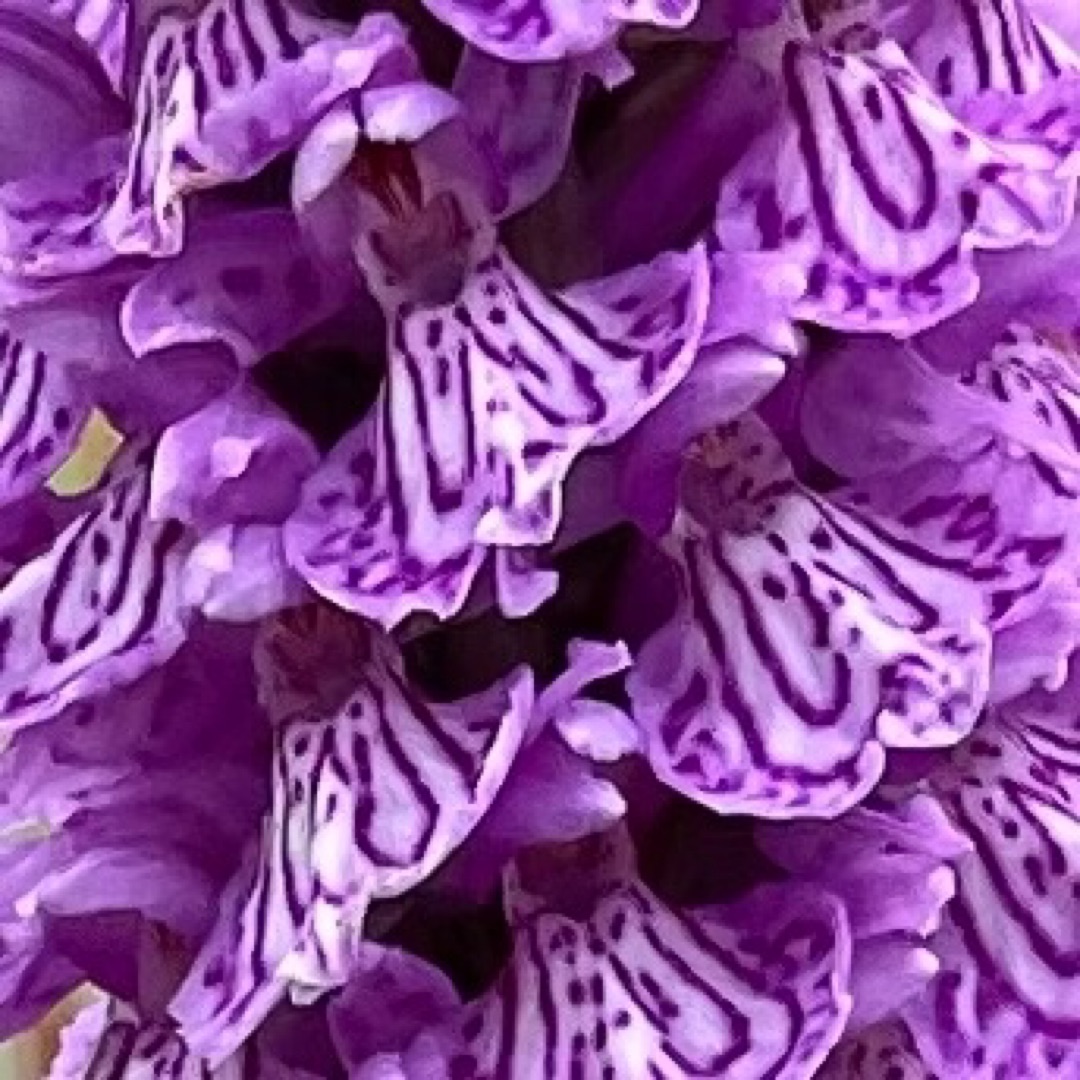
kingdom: Plantae
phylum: Tracheophyta
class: Liliopsida
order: Asparagales
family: Orchidaceae
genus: Dactylorhiza
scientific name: Dactylorhiza maculata
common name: Plettet gøgeurt
